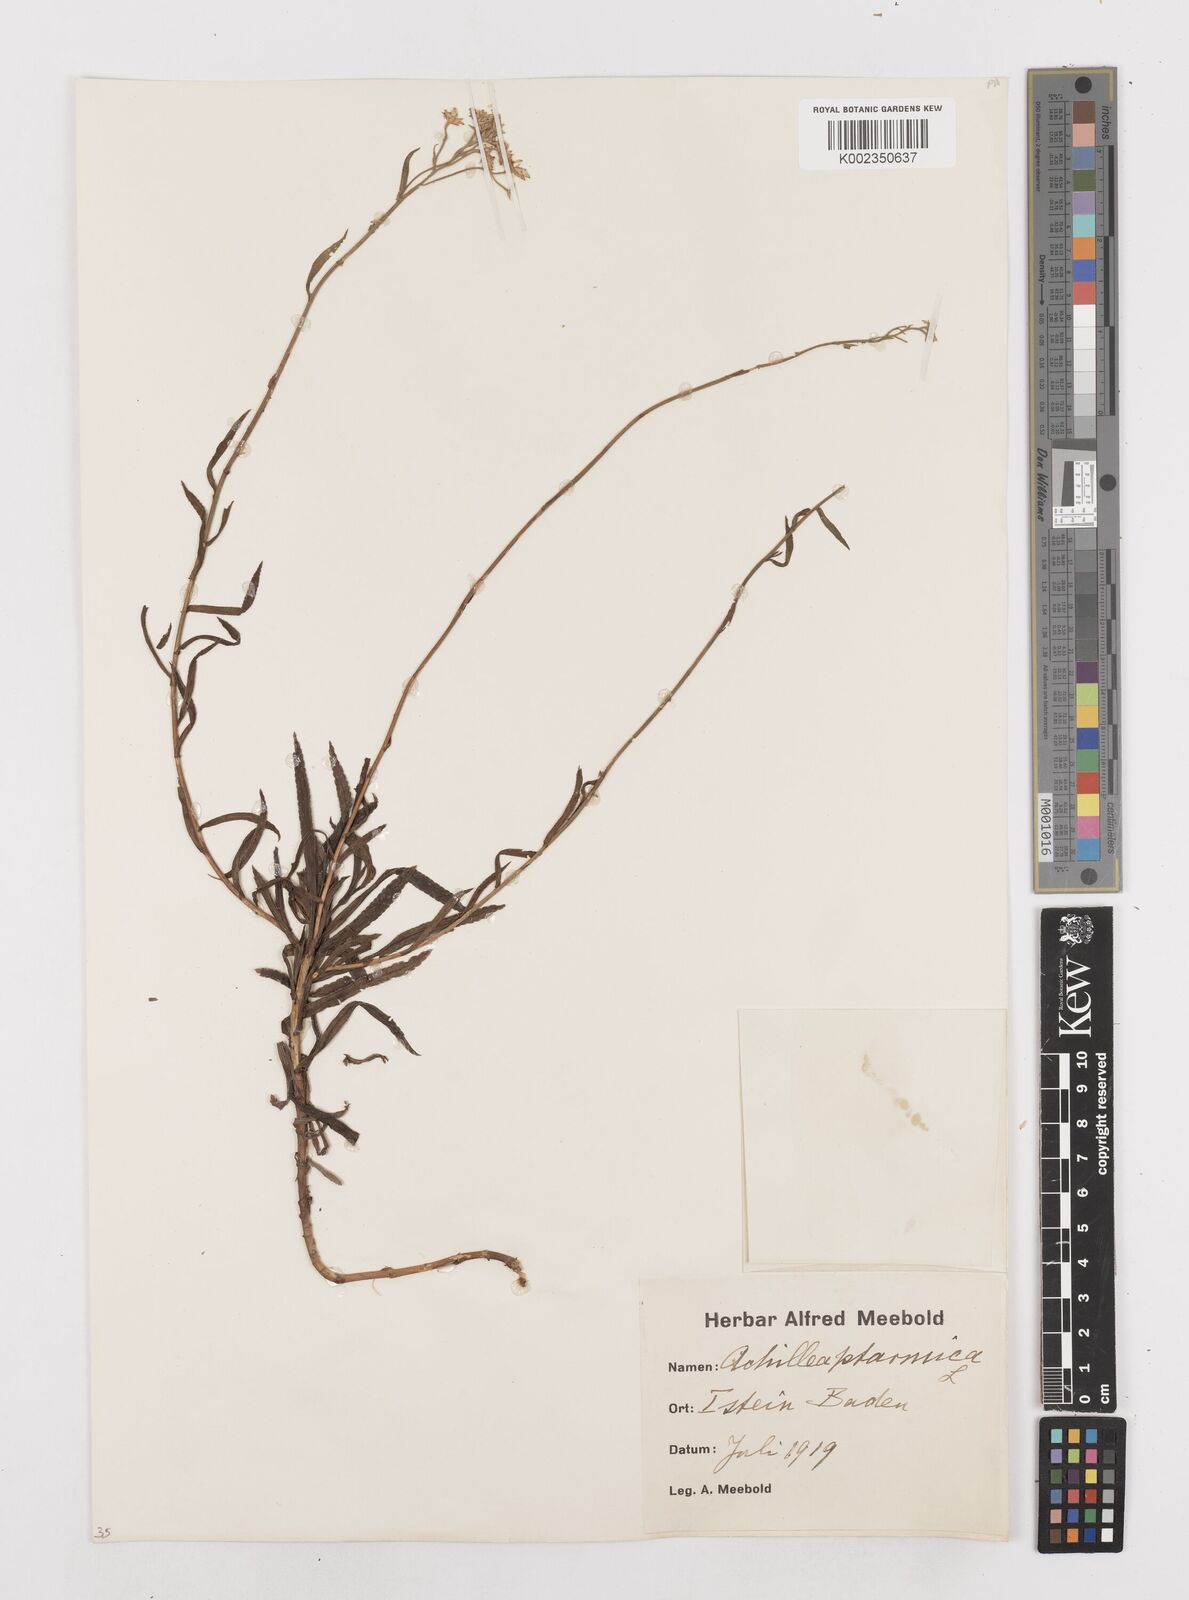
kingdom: Plantae
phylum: Tracheophyta
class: Magnoliopsida
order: Asterales
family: Asteraceae
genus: Achillea
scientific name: Achillea ptarmica
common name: Sneezeweed
